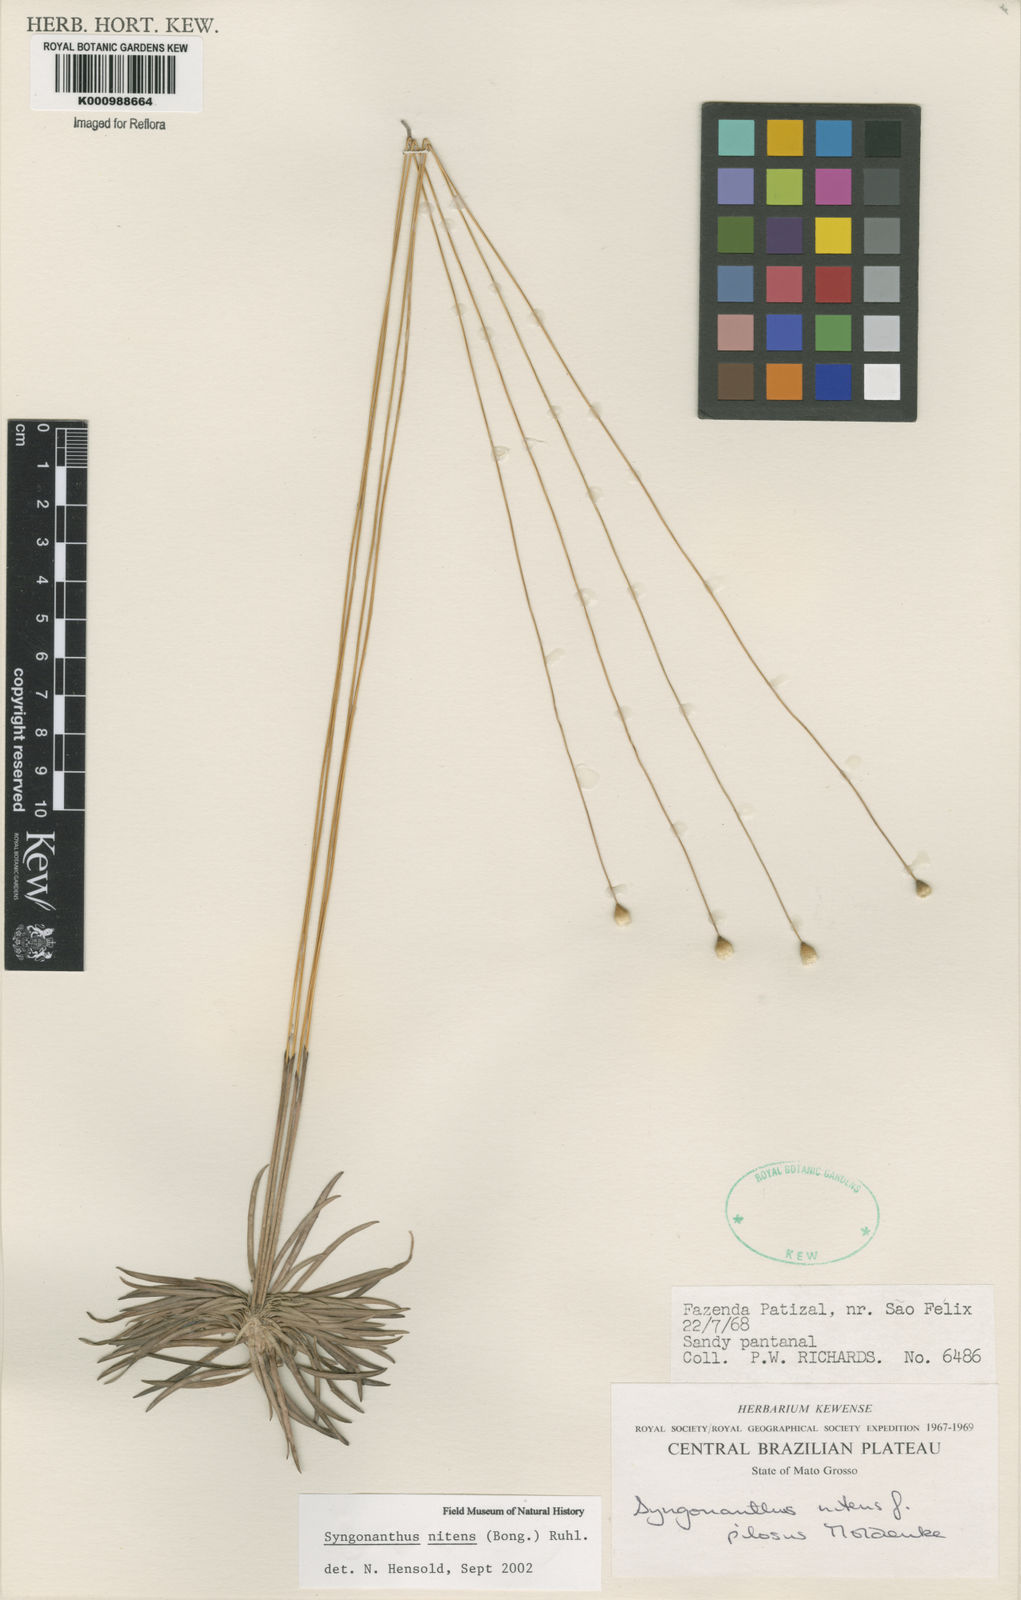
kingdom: Plantae
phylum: Tracheophyta
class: Liliopsida
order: Poales
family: Eriocaulaceae
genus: Syngonanthus
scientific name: Syngonanthus nitens
